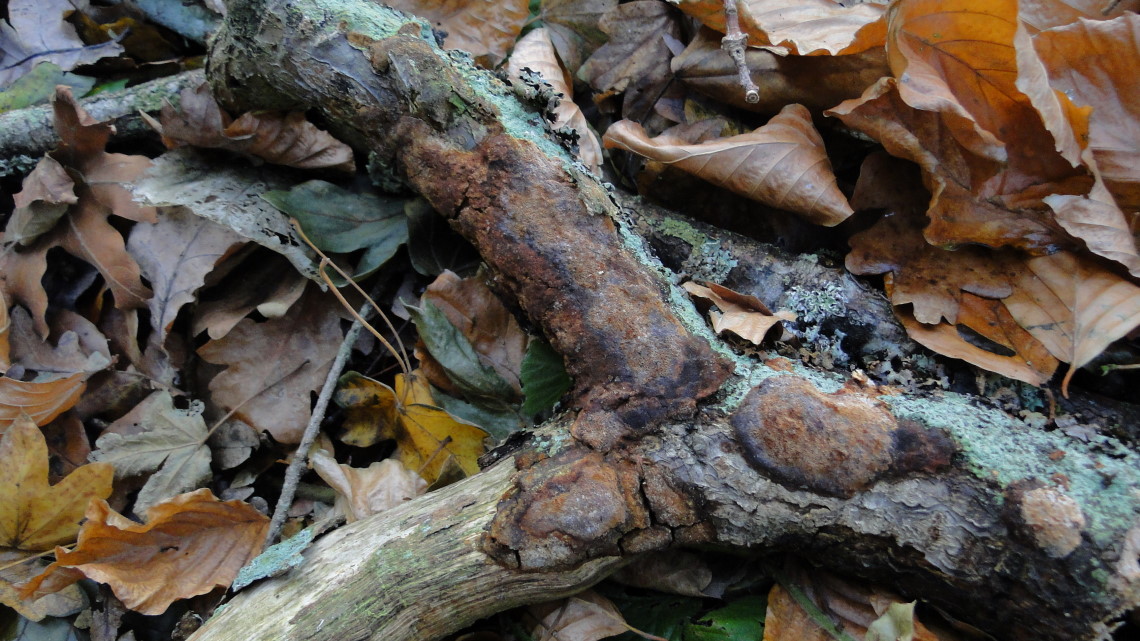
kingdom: Fungi
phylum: Basidiomycota
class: Agaricomycetes
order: Hymenochaetales
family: Hymenochaetaceae
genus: Fuscoporia
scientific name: Fuscoporia ferrea
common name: skorpe-ildporesvamp
